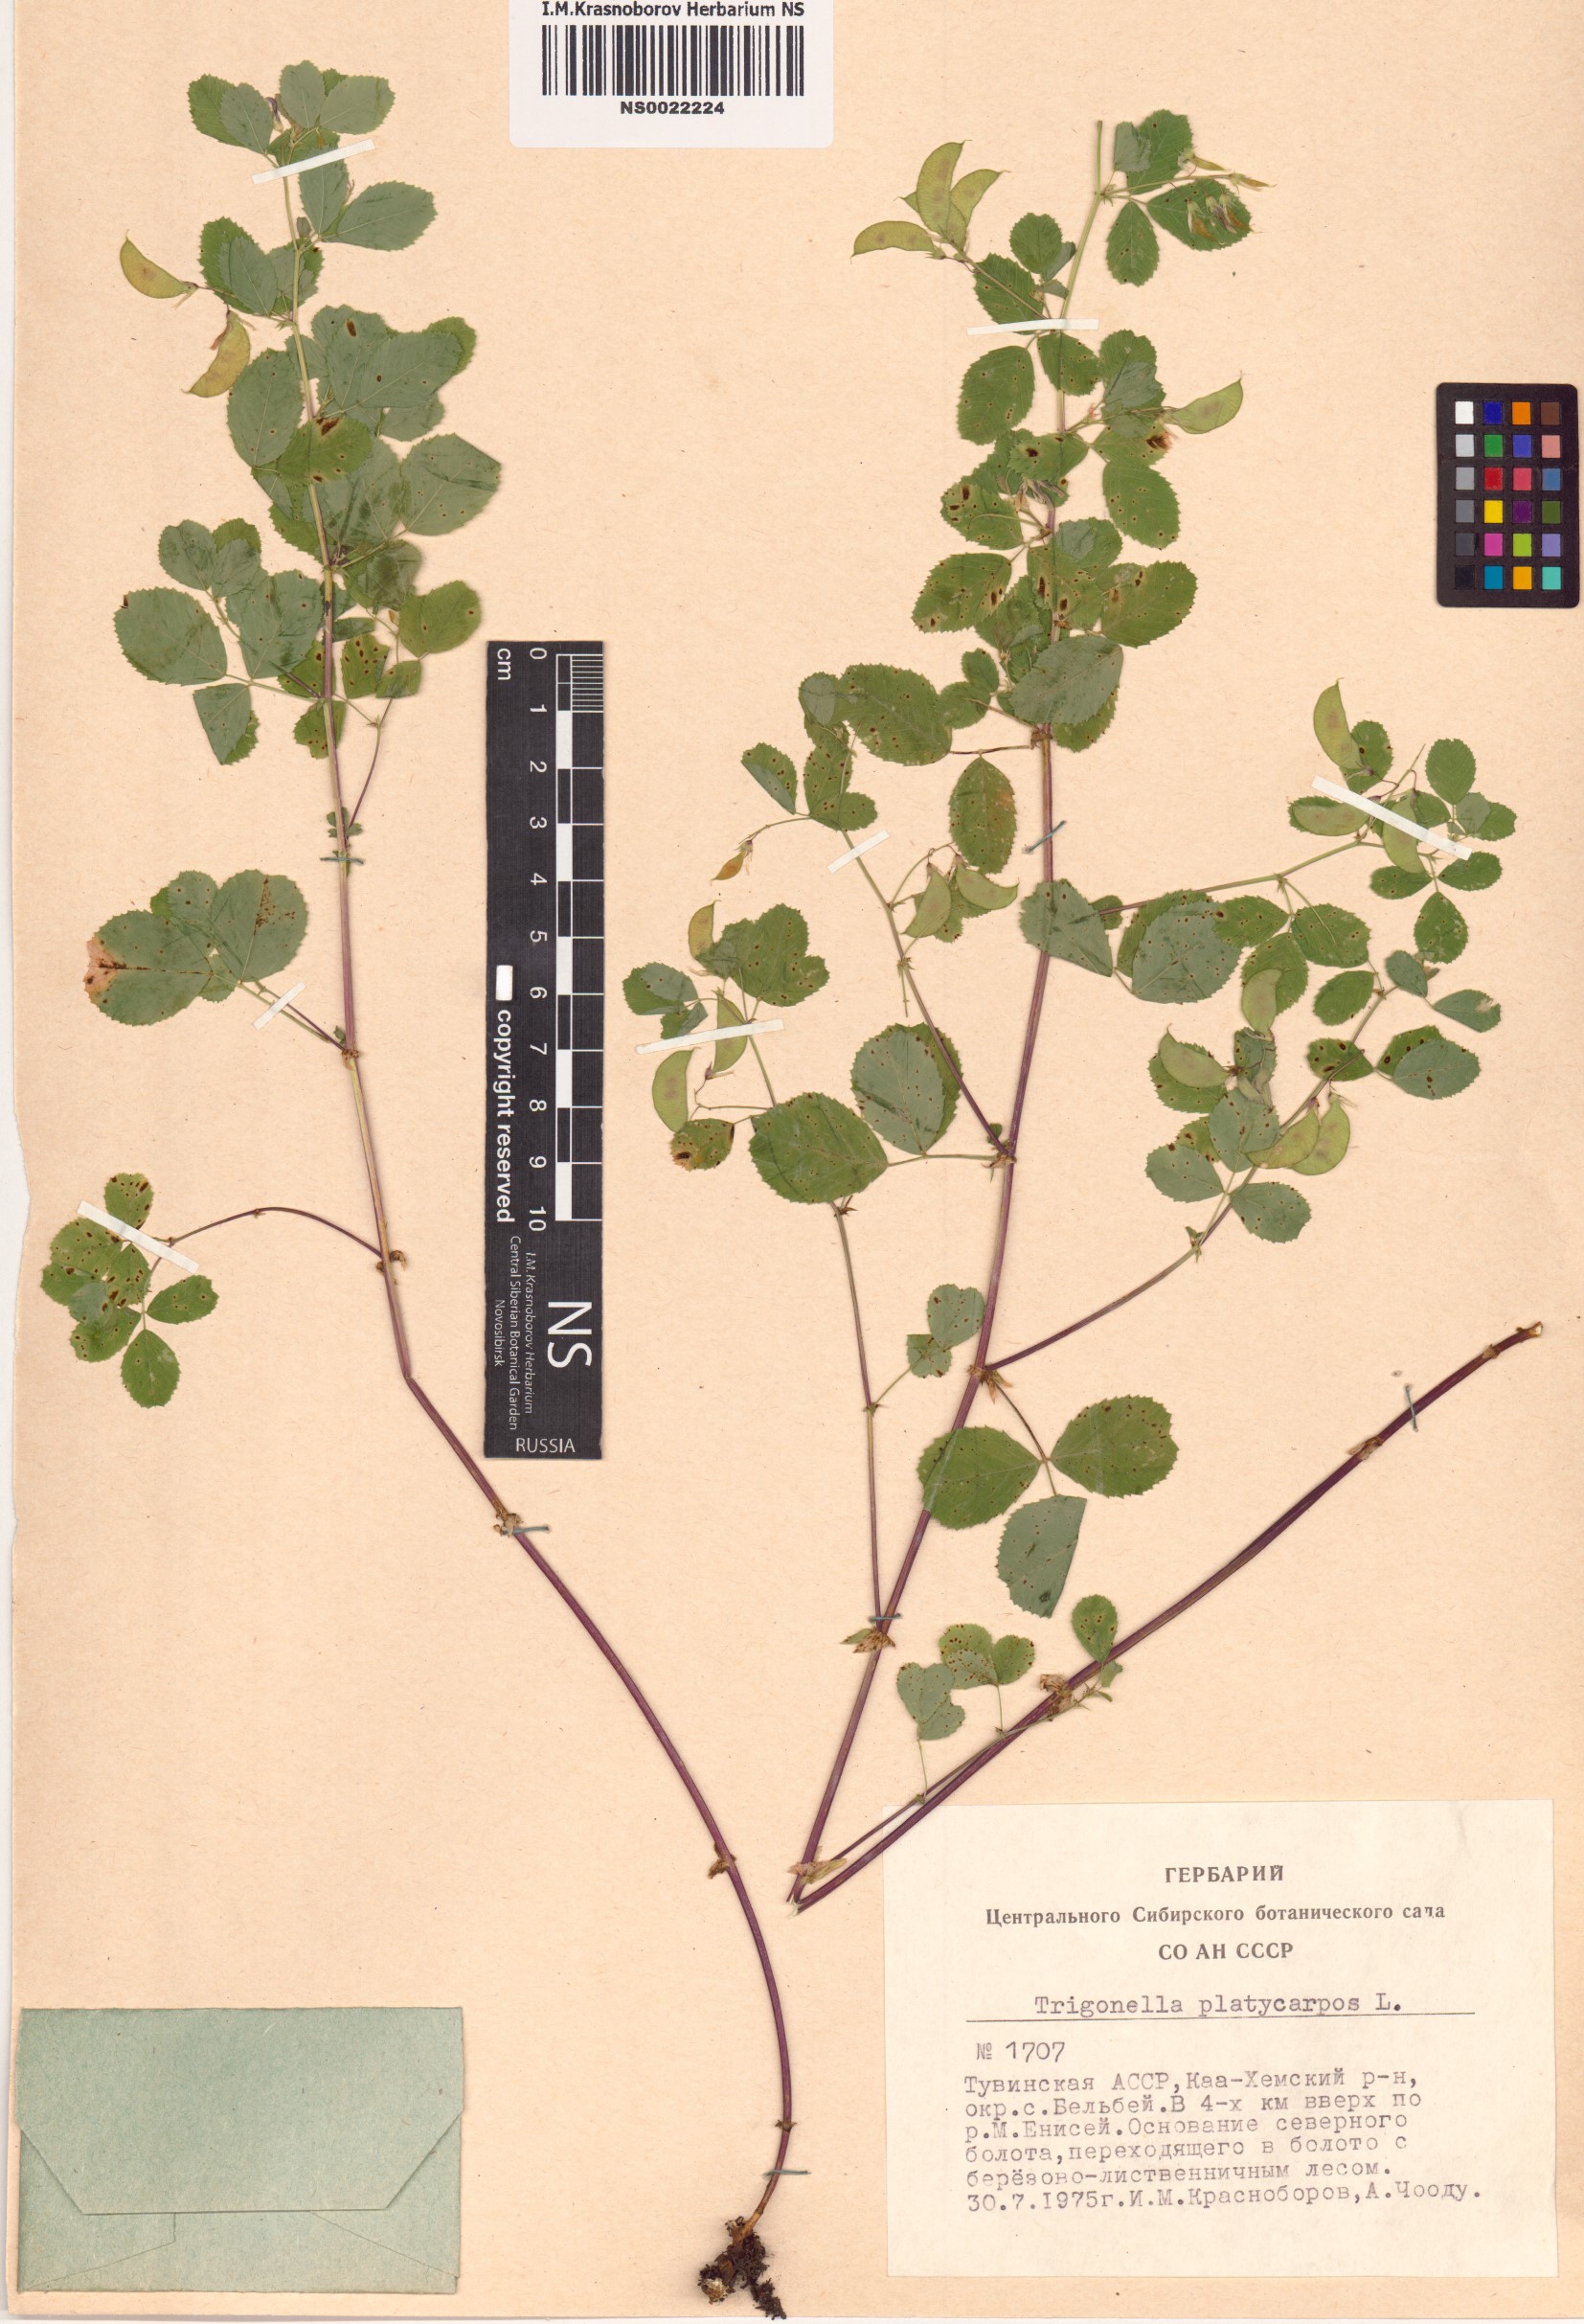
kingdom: Plantae
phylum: Tracheophyta
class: Magnoliopsida
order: Fabales
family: Fabaceae
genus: Medicago
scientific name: Medicago platycarpos
